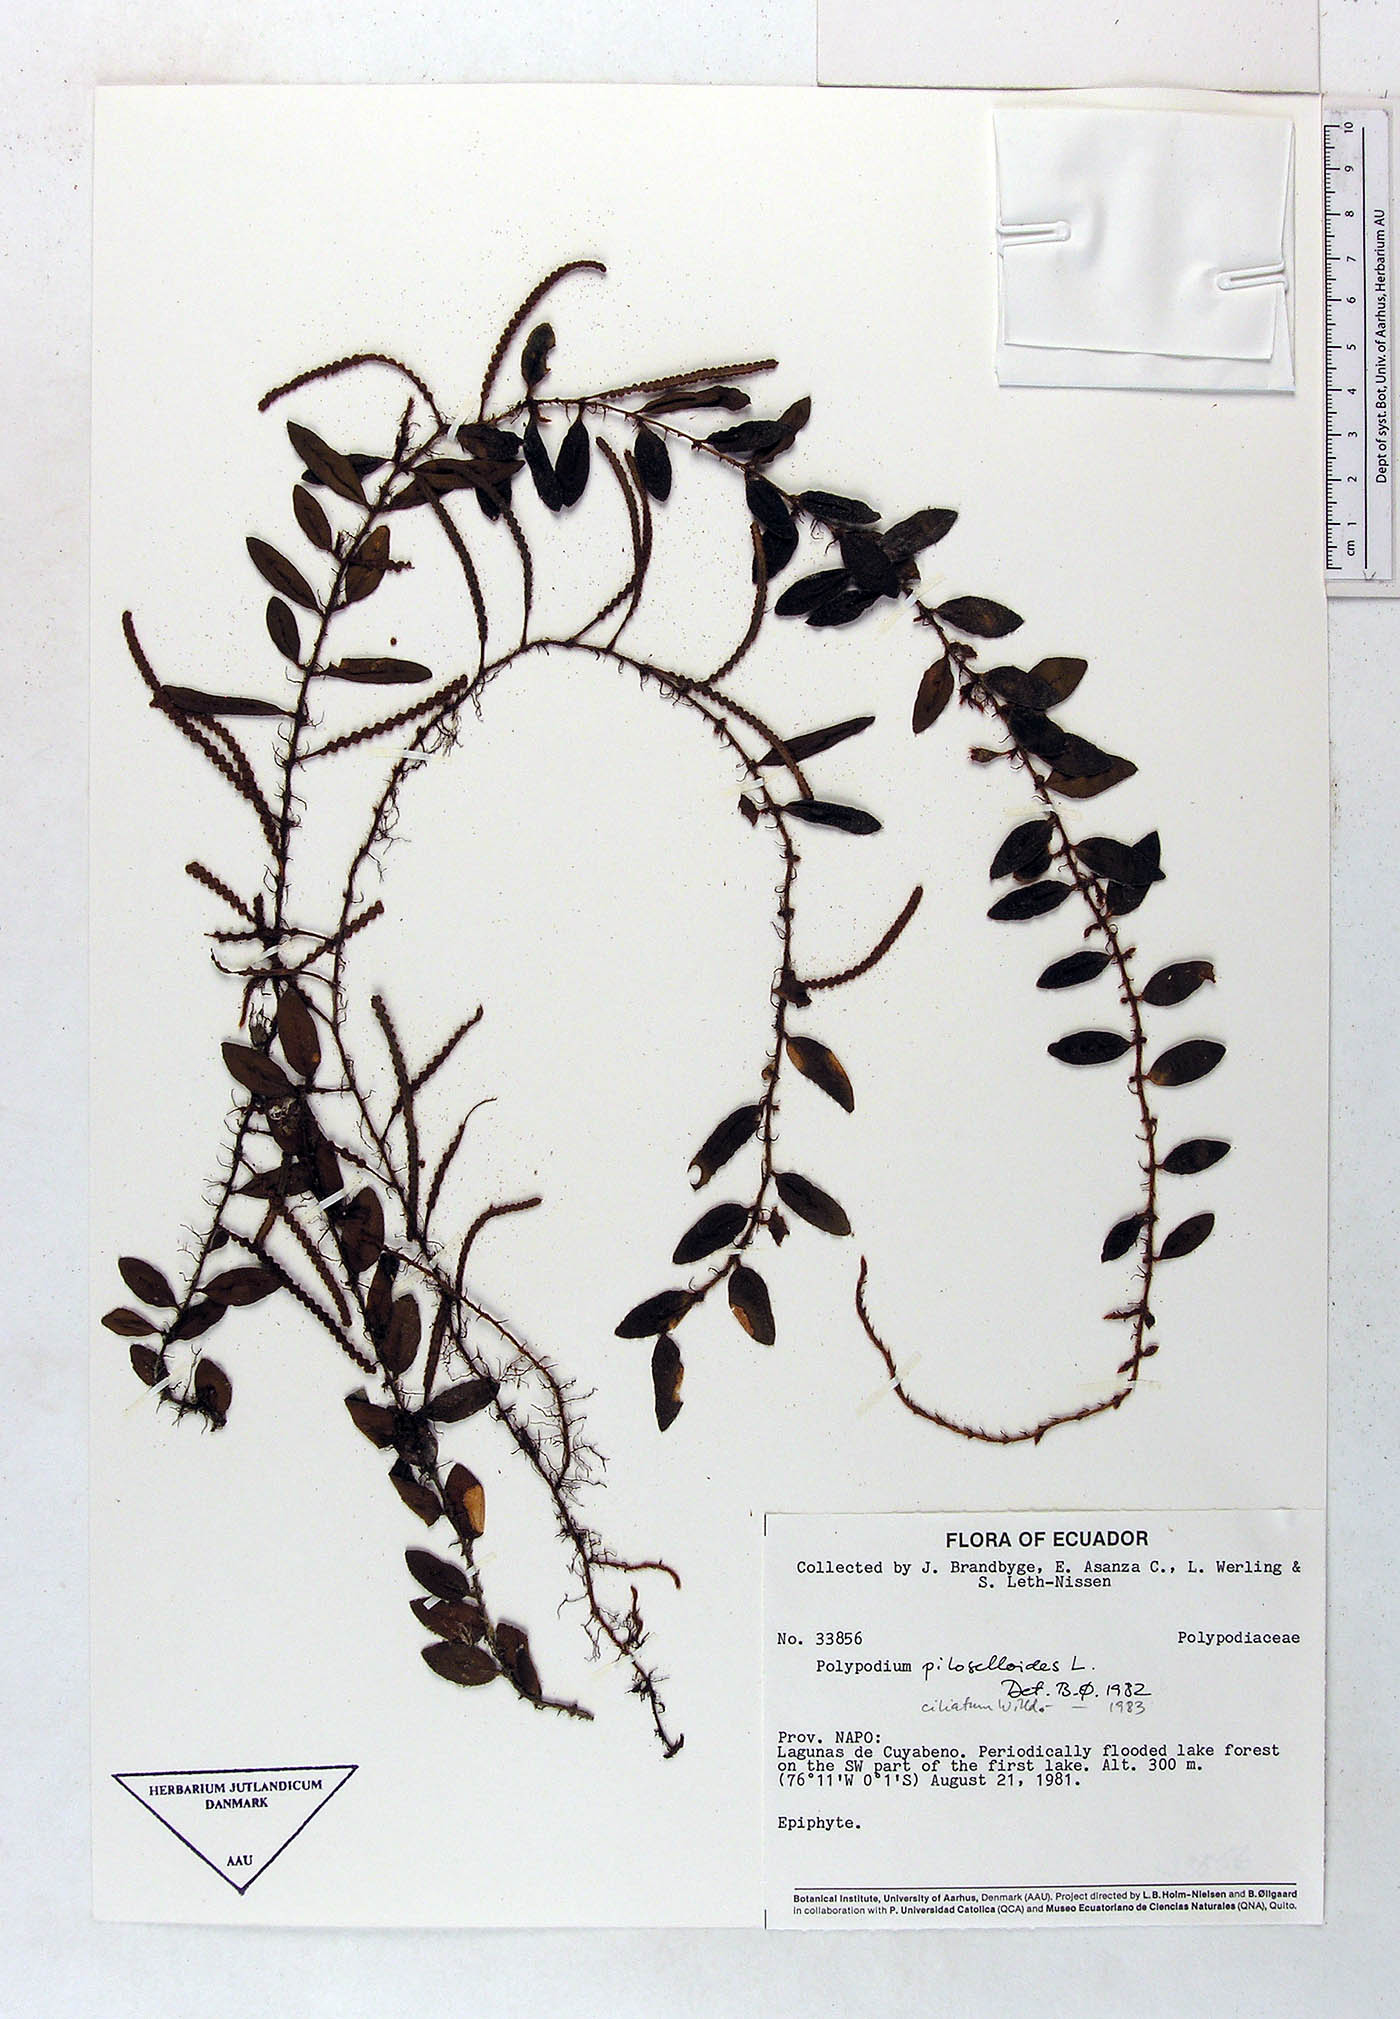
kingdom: Plantae
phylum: Tracheophyta
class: Polypodiopsida
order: Polypodiales
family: Polypodiaceae
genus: Microgramma
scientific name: Microgramma piloselloides
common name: Hairy snakefern
